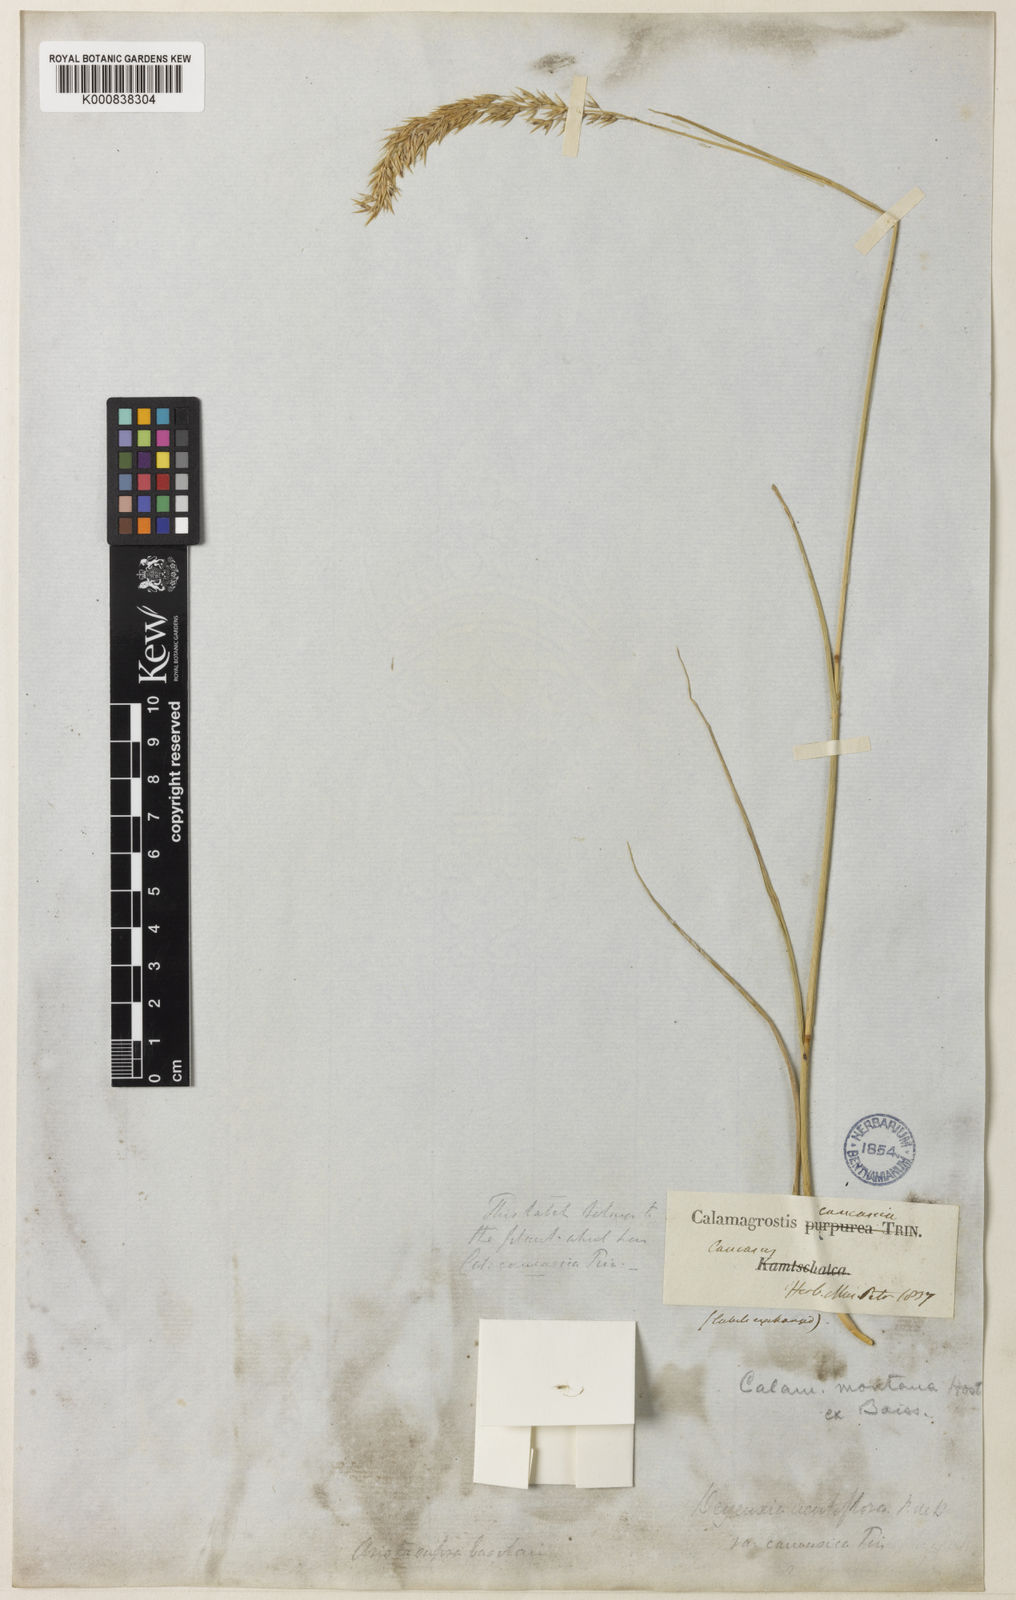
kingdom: Plantae
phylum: Tracheophyta
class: Liliopsida
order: Poales
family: Poaceae
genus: Calamagrostis
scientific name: Calamagrostis caucasica
